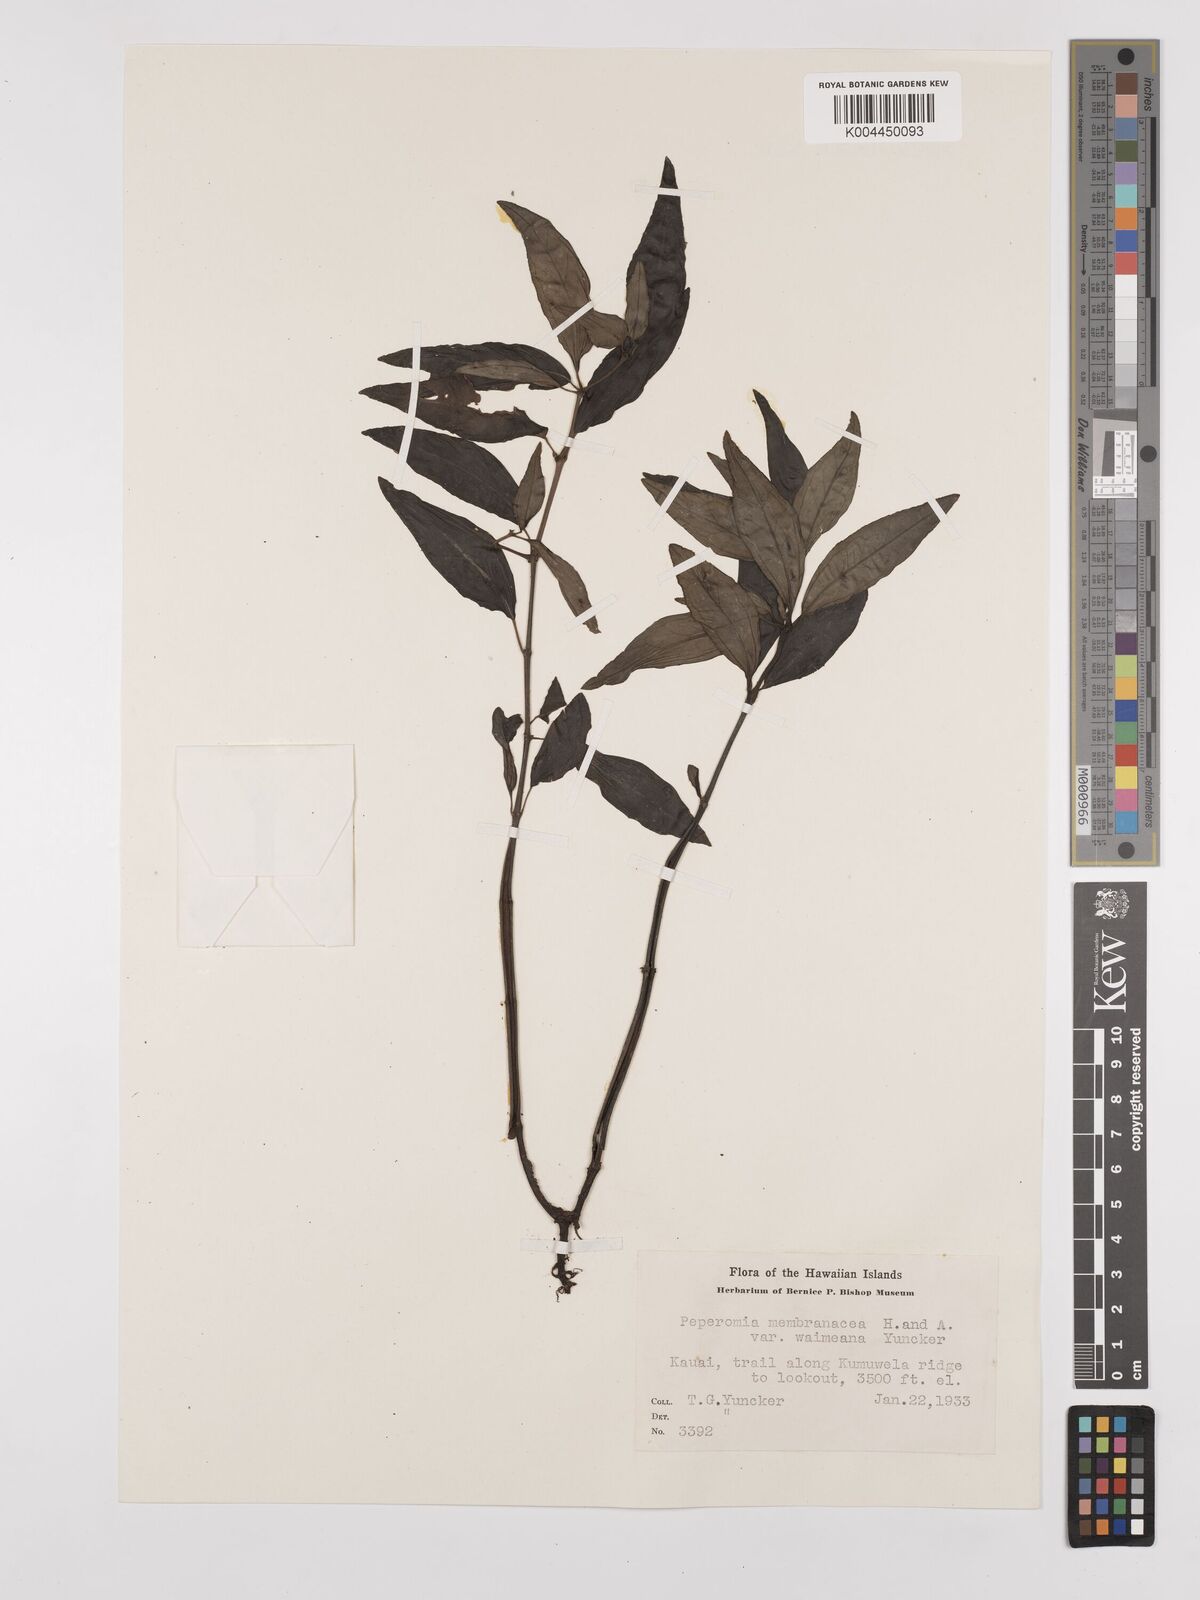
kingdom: Plantae
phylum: Tracheophyta
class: Magnoliopsida
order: Piperales
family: Piperaceae
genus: Peperomia
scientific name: Peperomia
